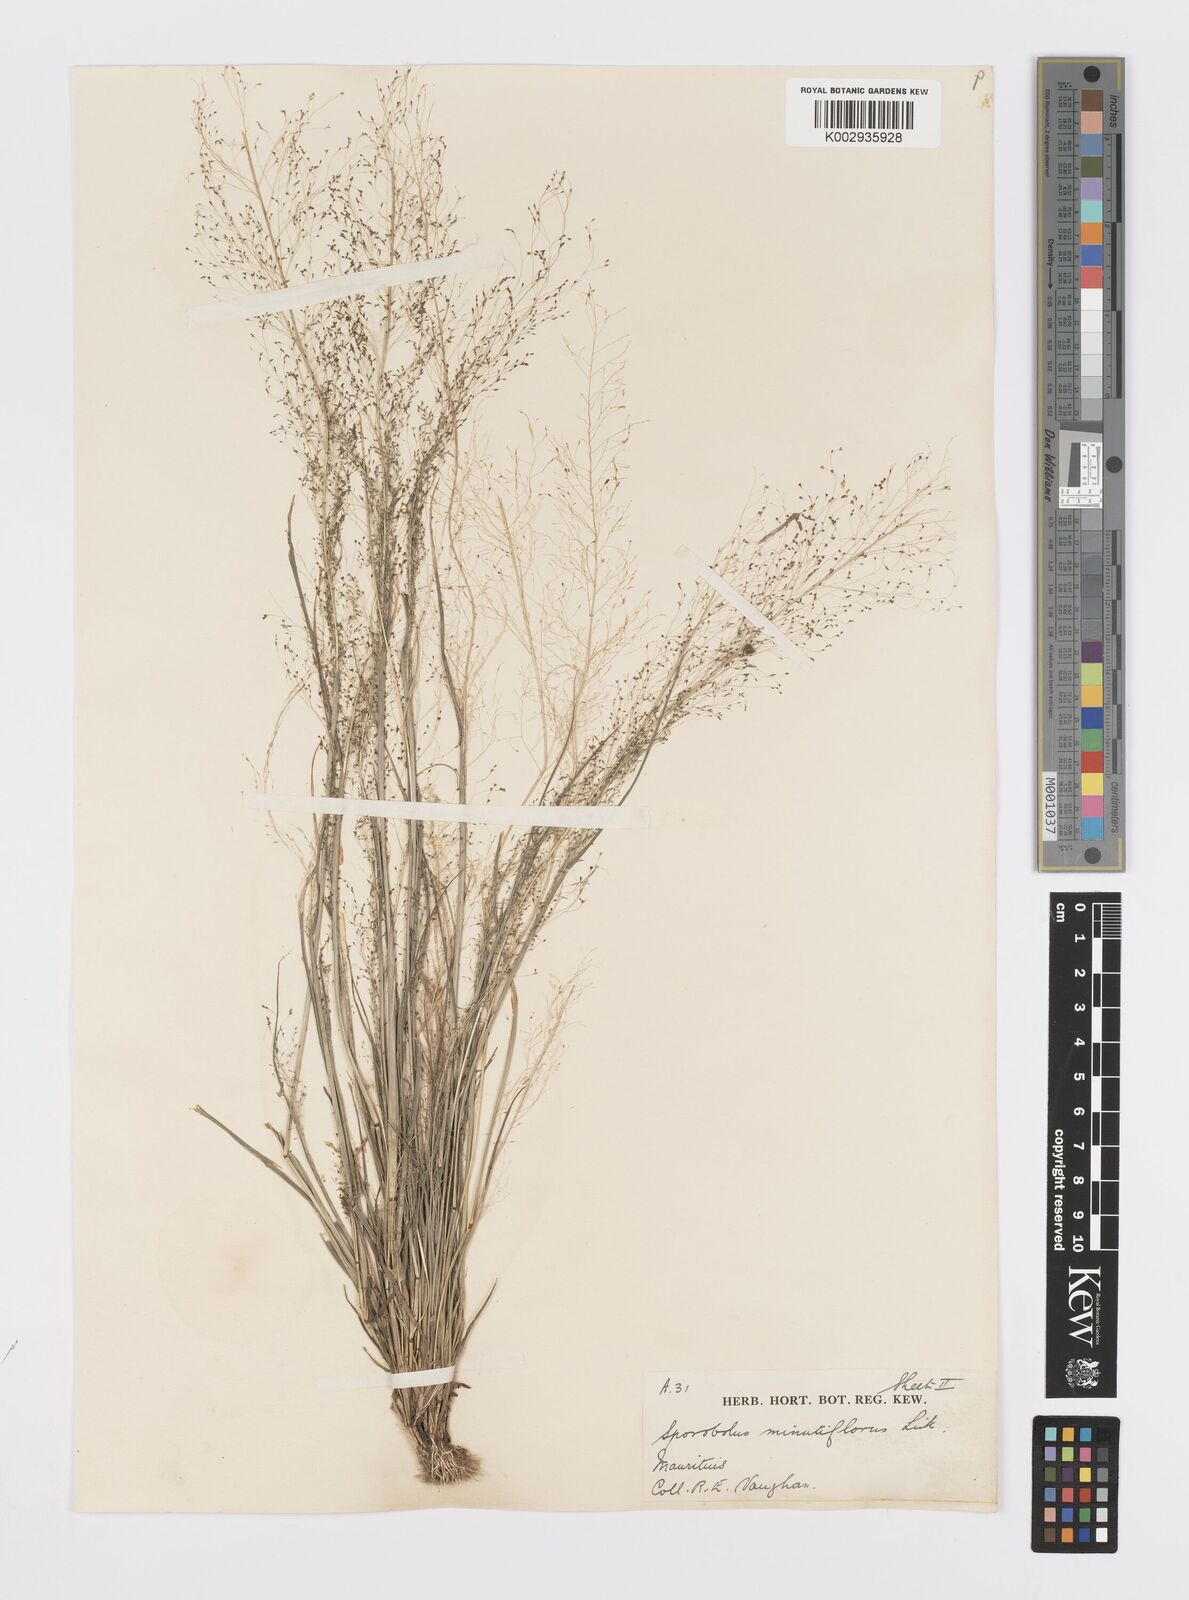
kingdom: Plantae
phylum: Tracheophyta
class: Liliopsida
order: Poales
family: Poaceae
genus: Sporobolus
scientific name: Sporobolus tenuissimus
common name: Tropical dropseed
